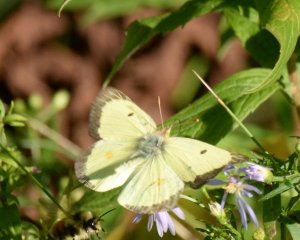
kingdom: Animalia
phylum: Arthropoda
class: Insecta
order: Lepidoptera
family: Pieridae
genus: Colias
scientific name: Colias philodice
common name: Clouded Sulphur
